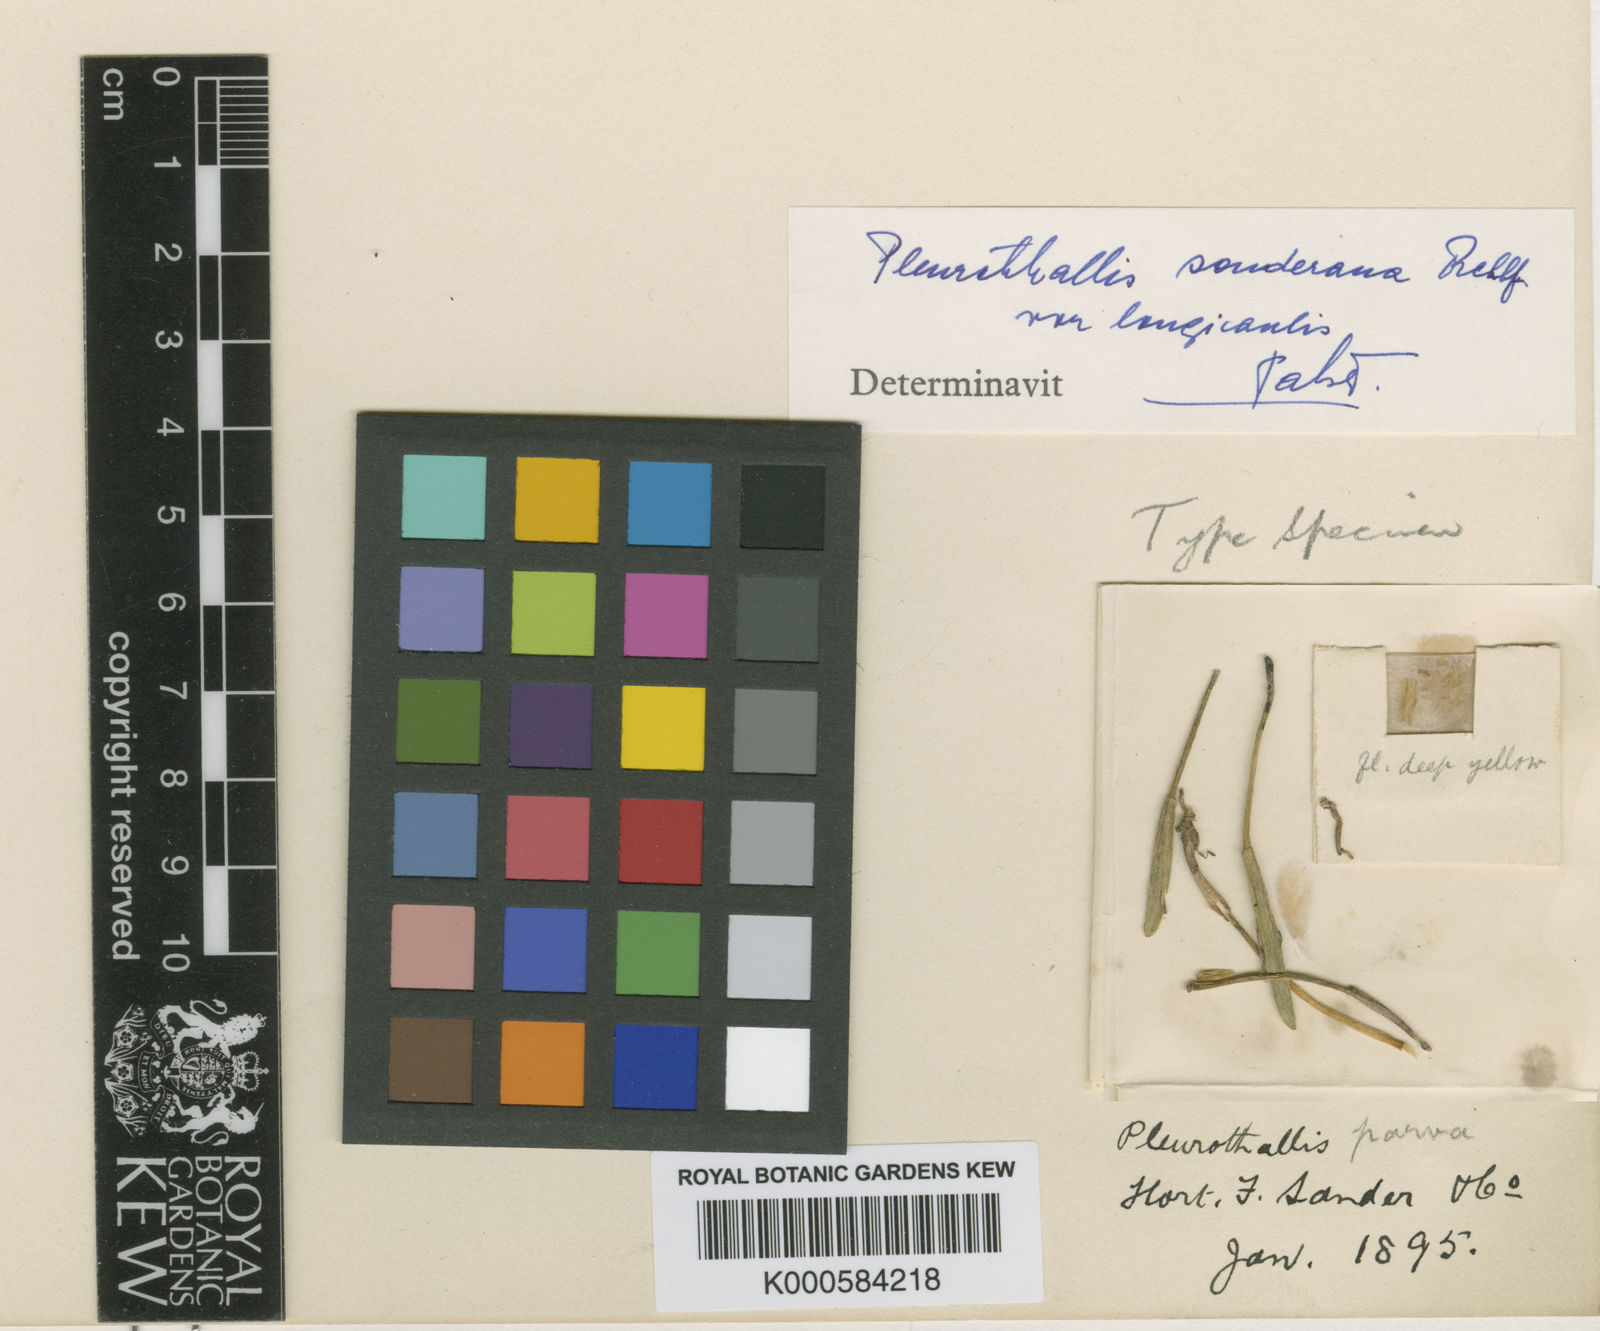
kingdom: Plantae
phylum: Tracheophyta
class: Liliopsida
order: Asparagales
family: Orchidaceae
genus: Acianthera
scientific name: Acianthera parva
